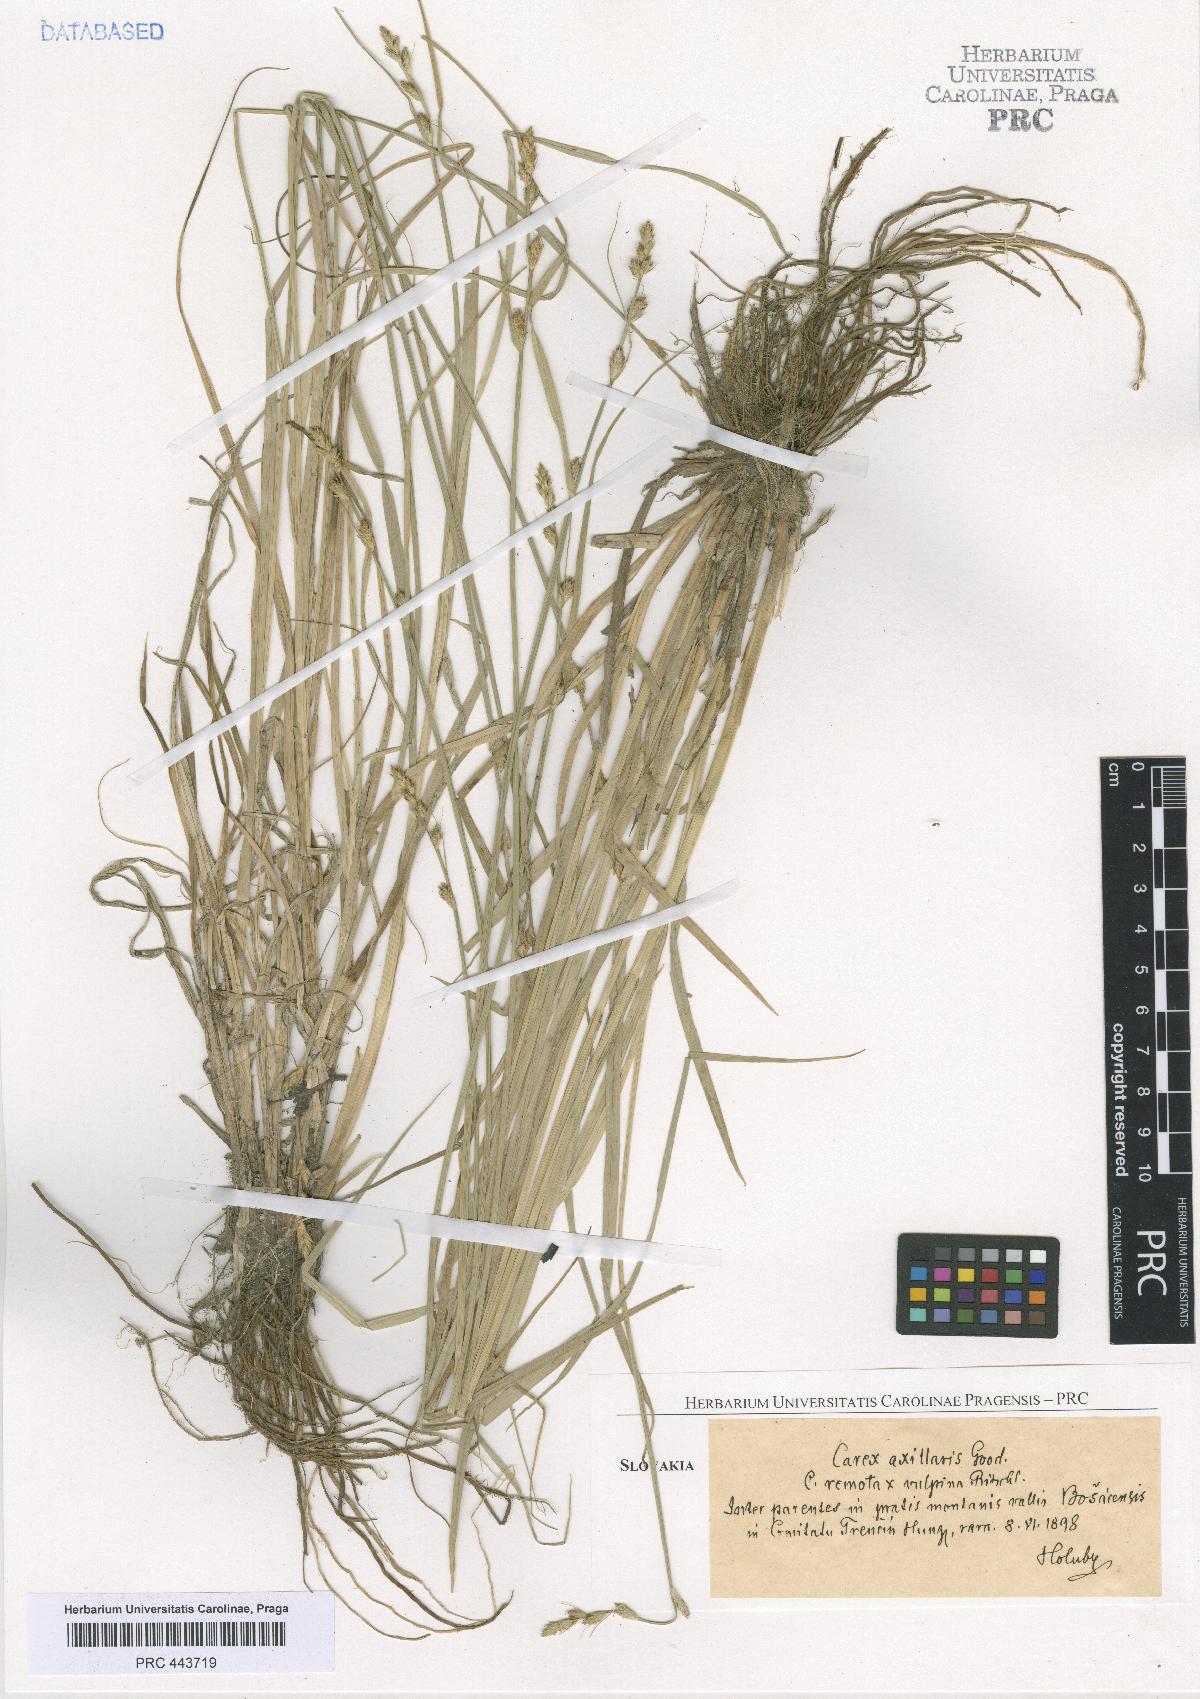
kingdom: Plantae
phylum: Tracheophyta
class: Liliopsida
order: Poales
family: Cyperaceae
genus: Carex
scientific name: Carex pseudoaxillaris
